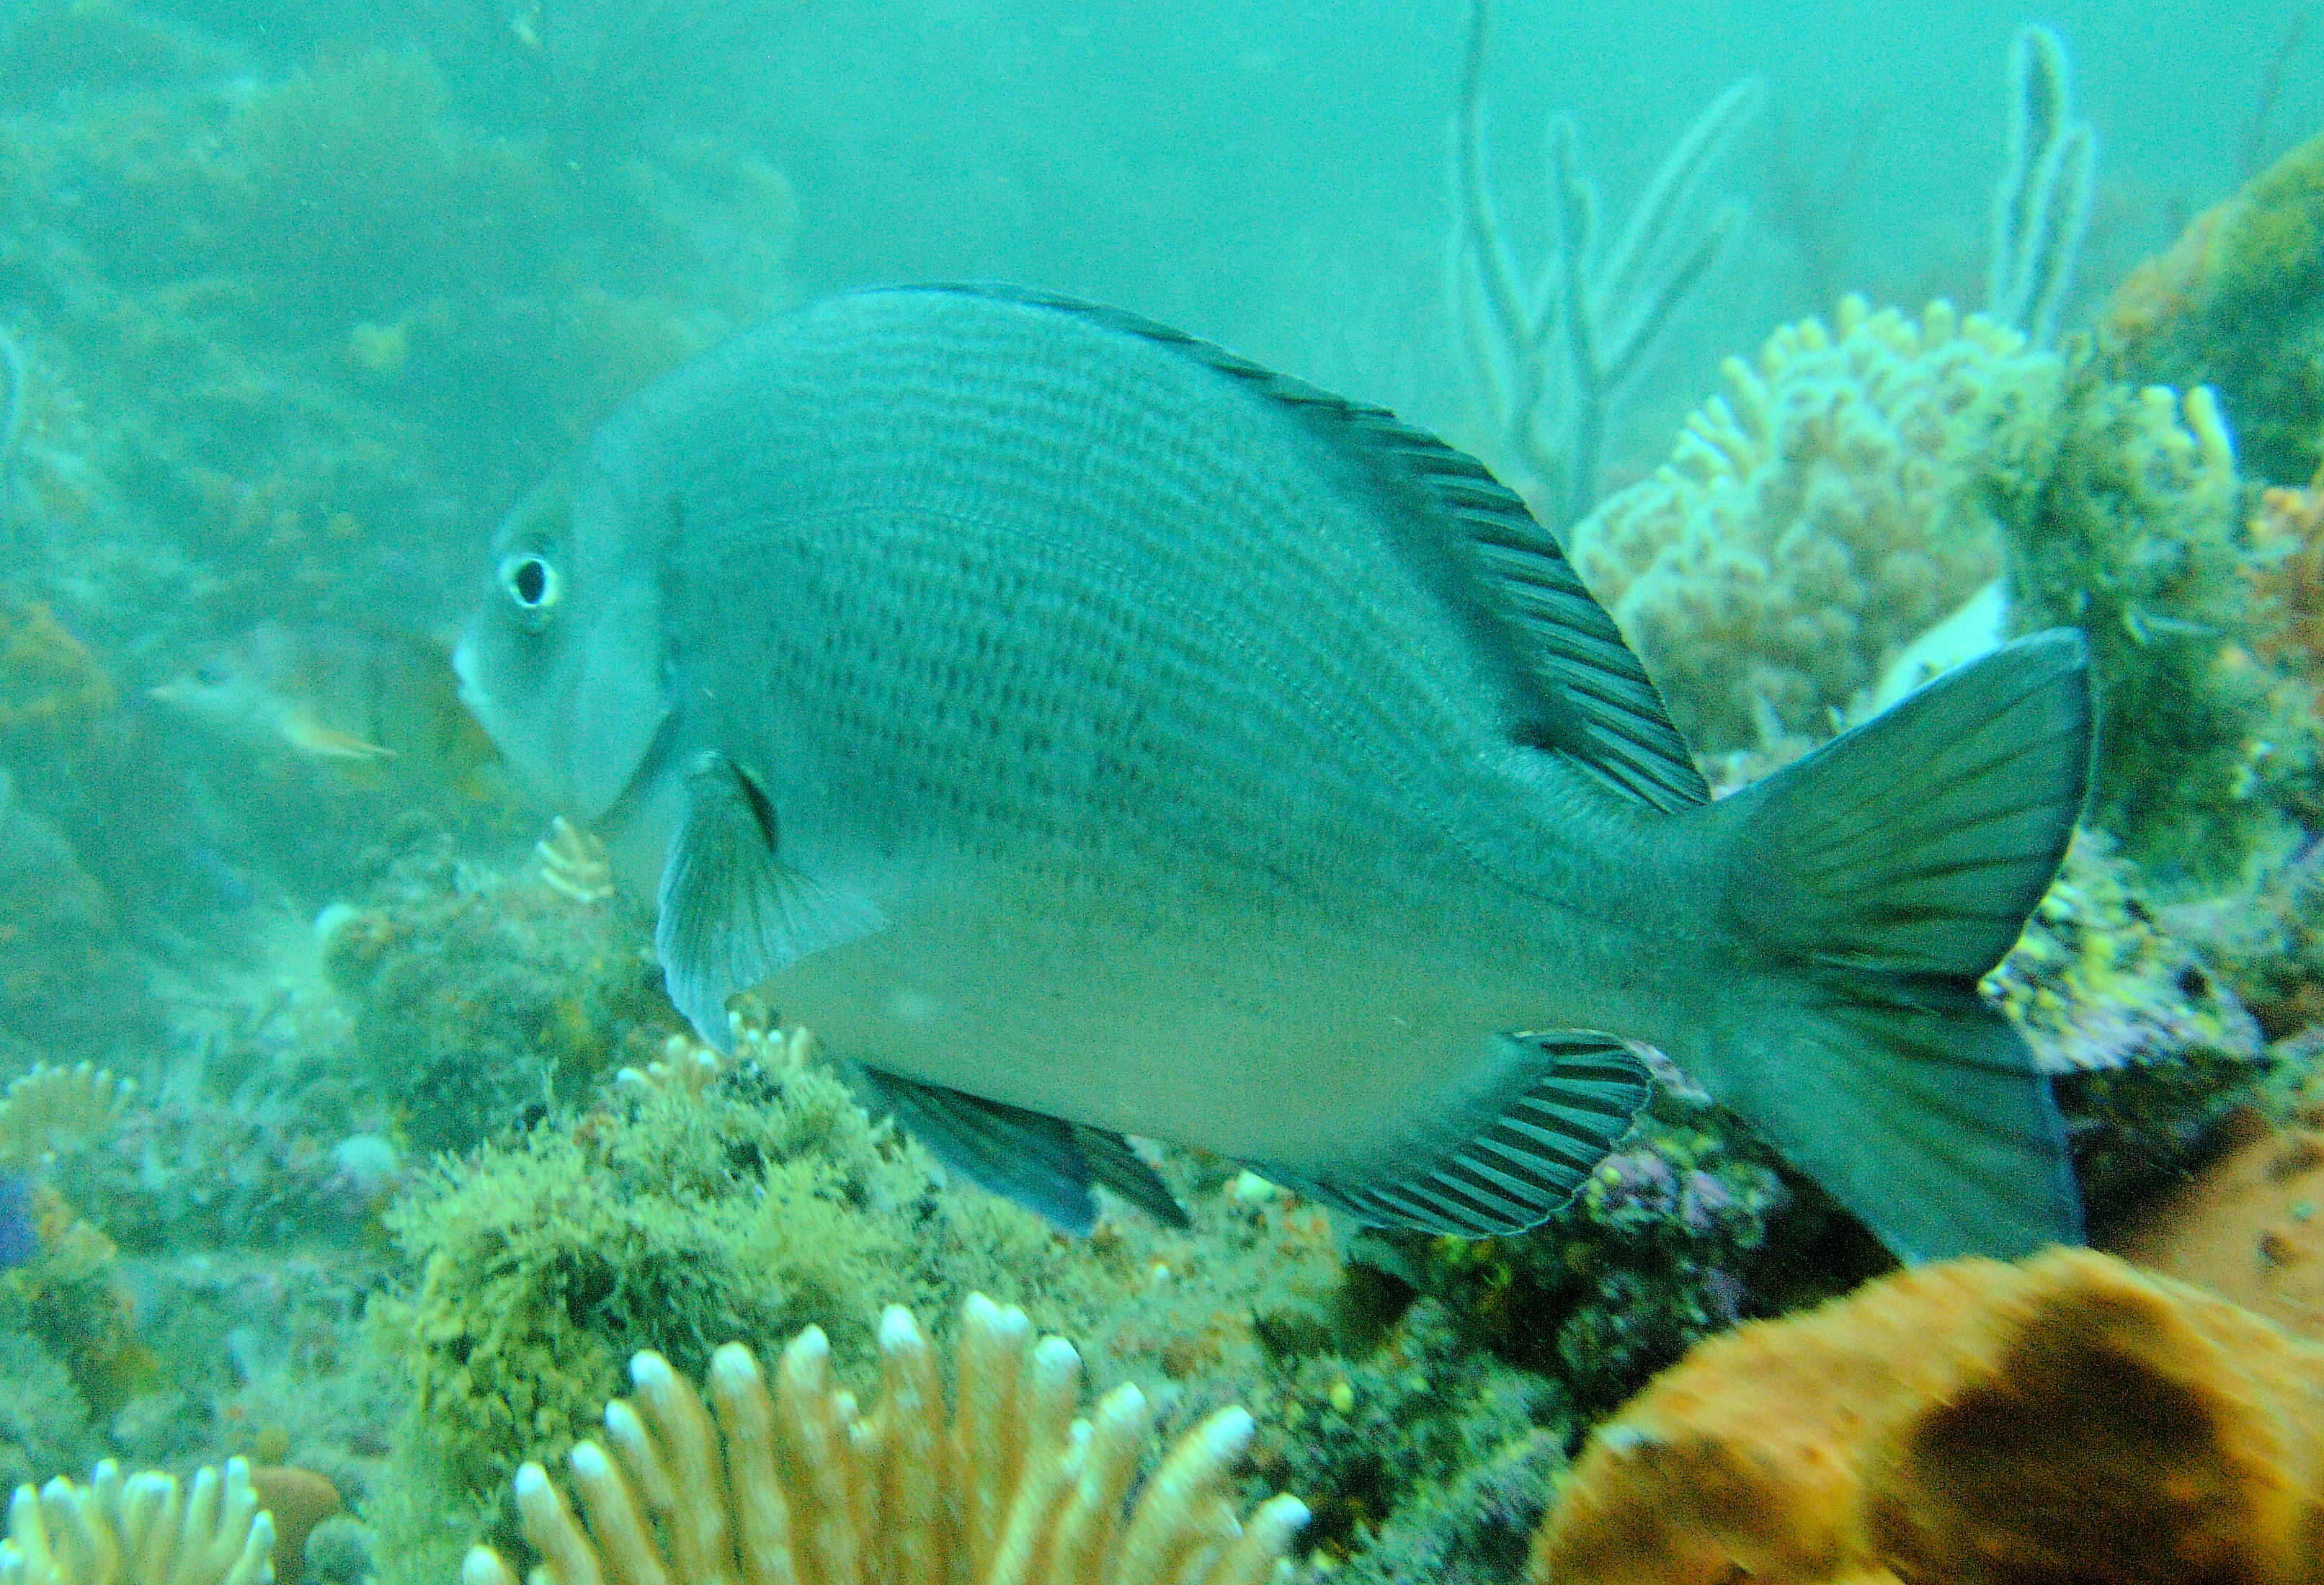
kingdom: Animalia
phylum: Chordata
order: Perciformes
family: Sparidae
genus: Polyamblyodon
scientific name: Polyamblyodon germanum
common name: German seabream
